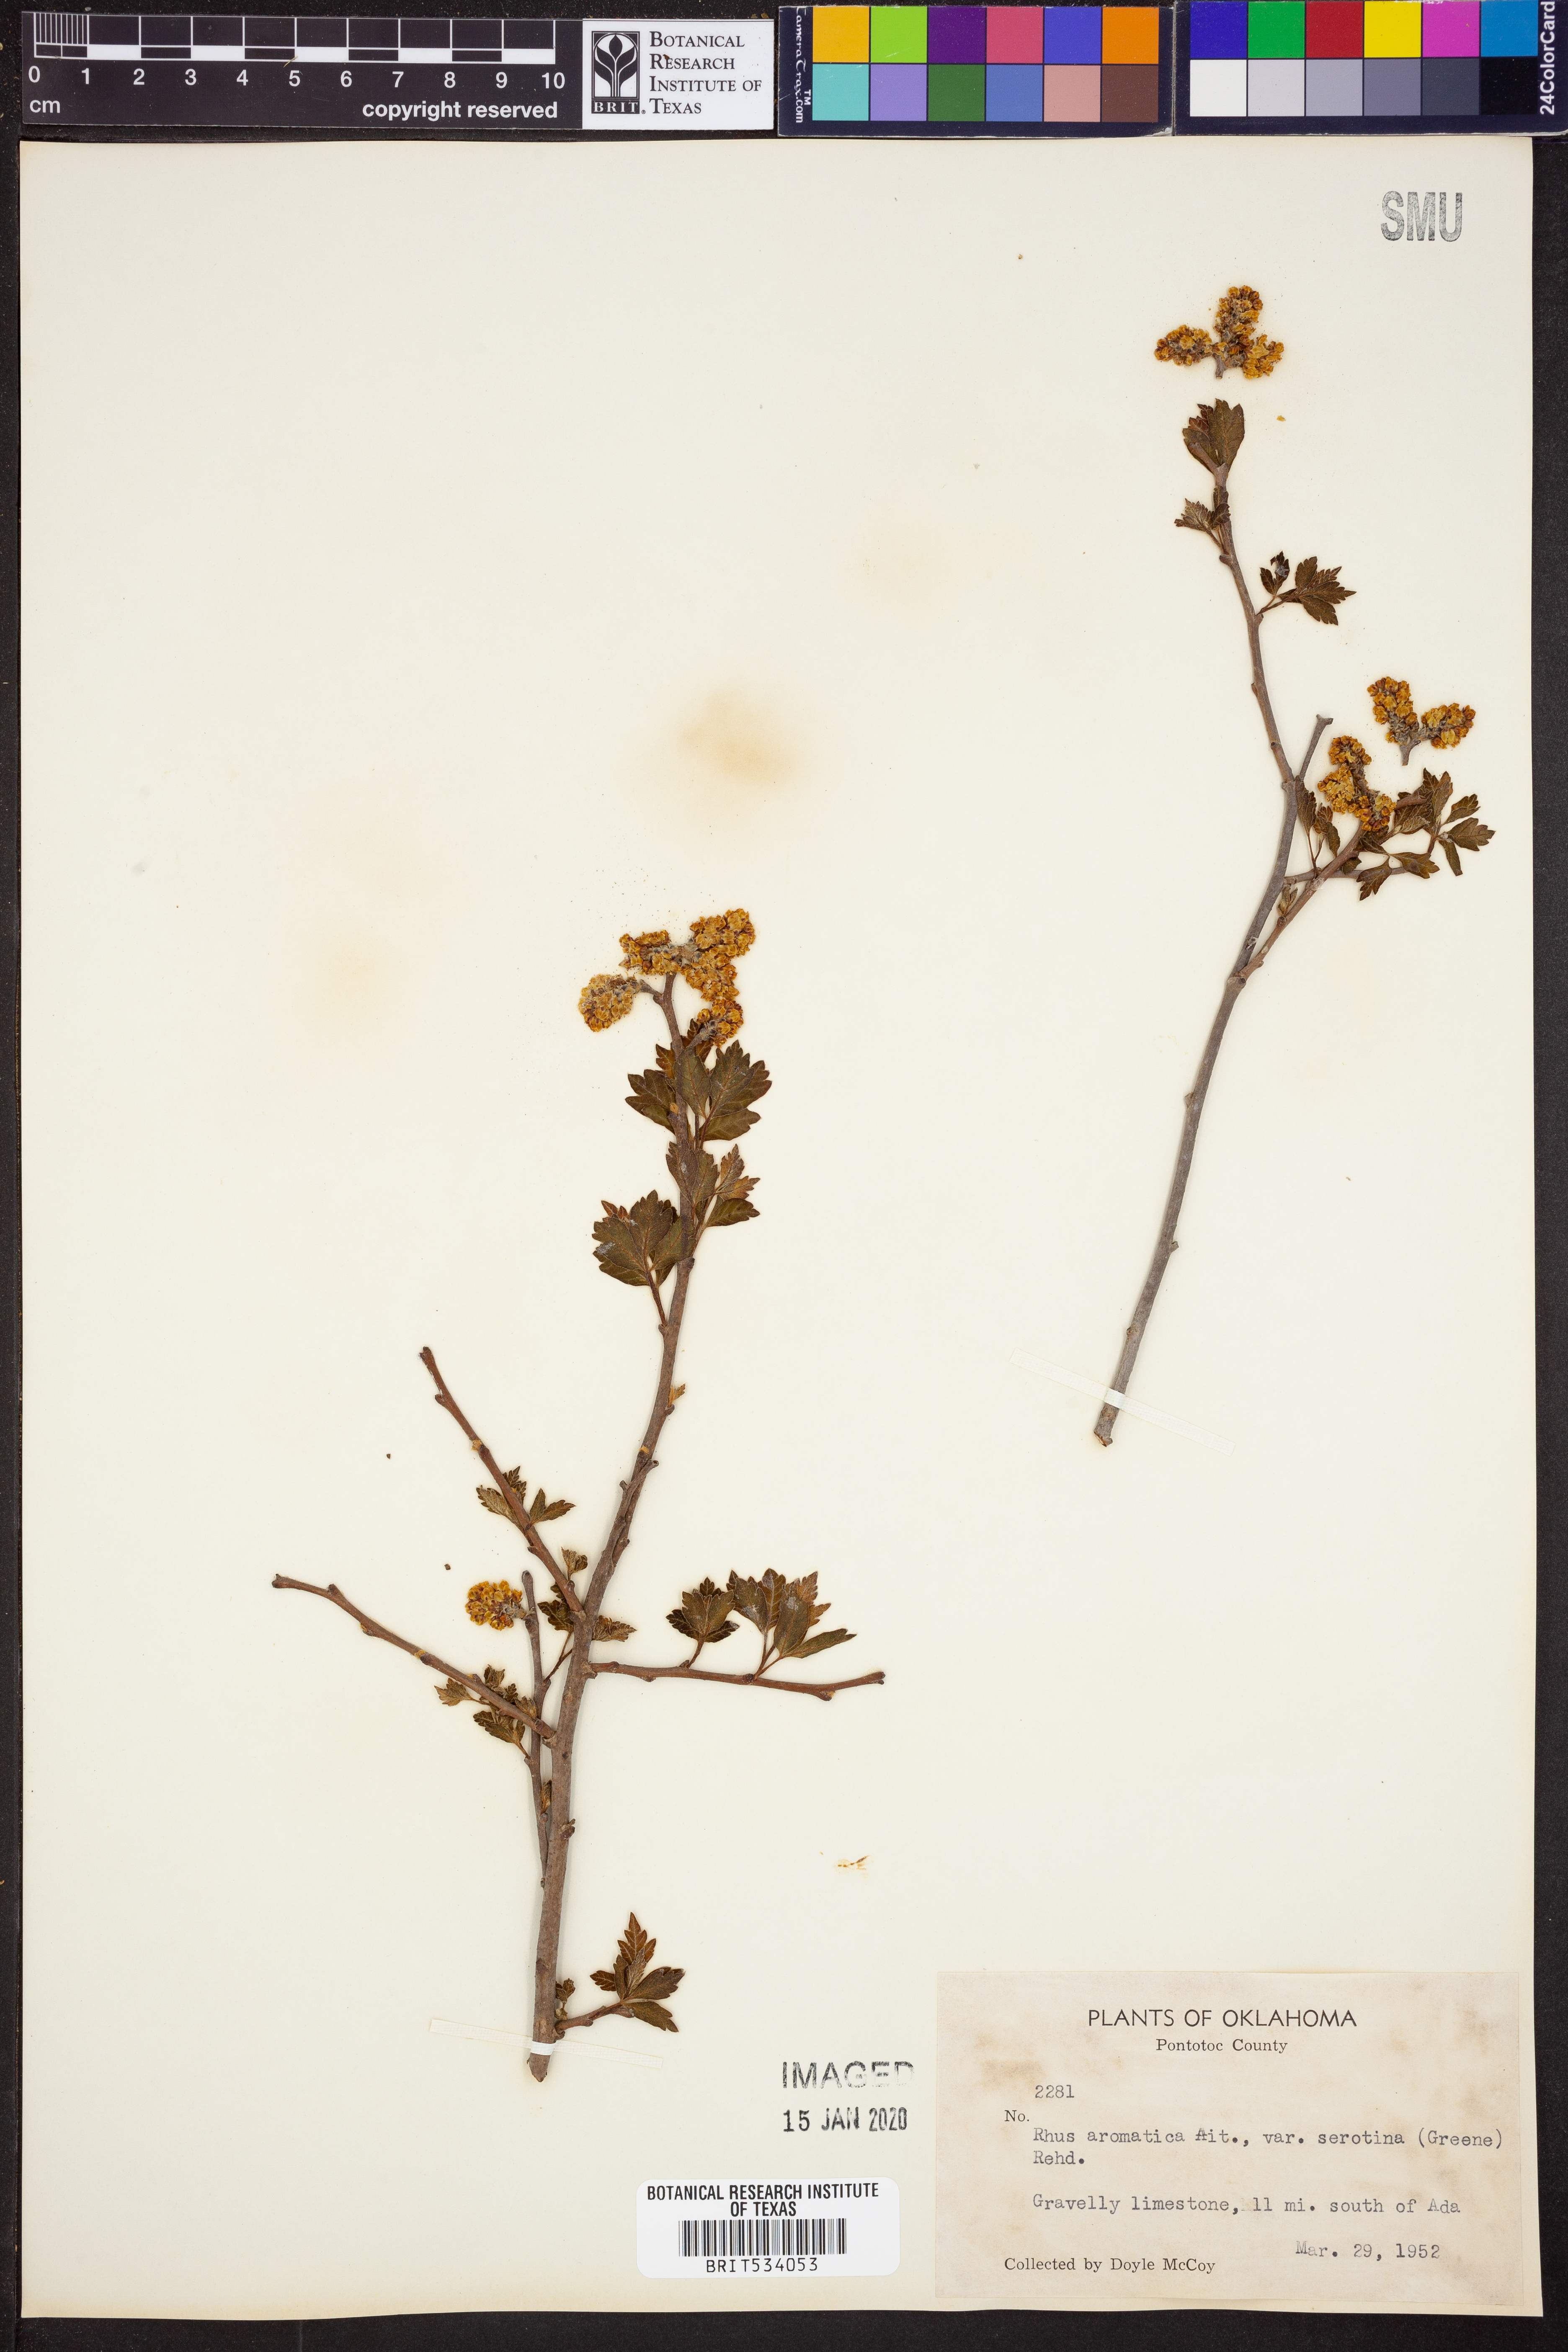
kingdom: Plantae
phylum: Tracheophyta
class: Magnoliopsida
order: Sapindales
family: Anacardiaceae
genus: Rhus
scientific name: Rhus aromatica
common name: Aromatic sumac
